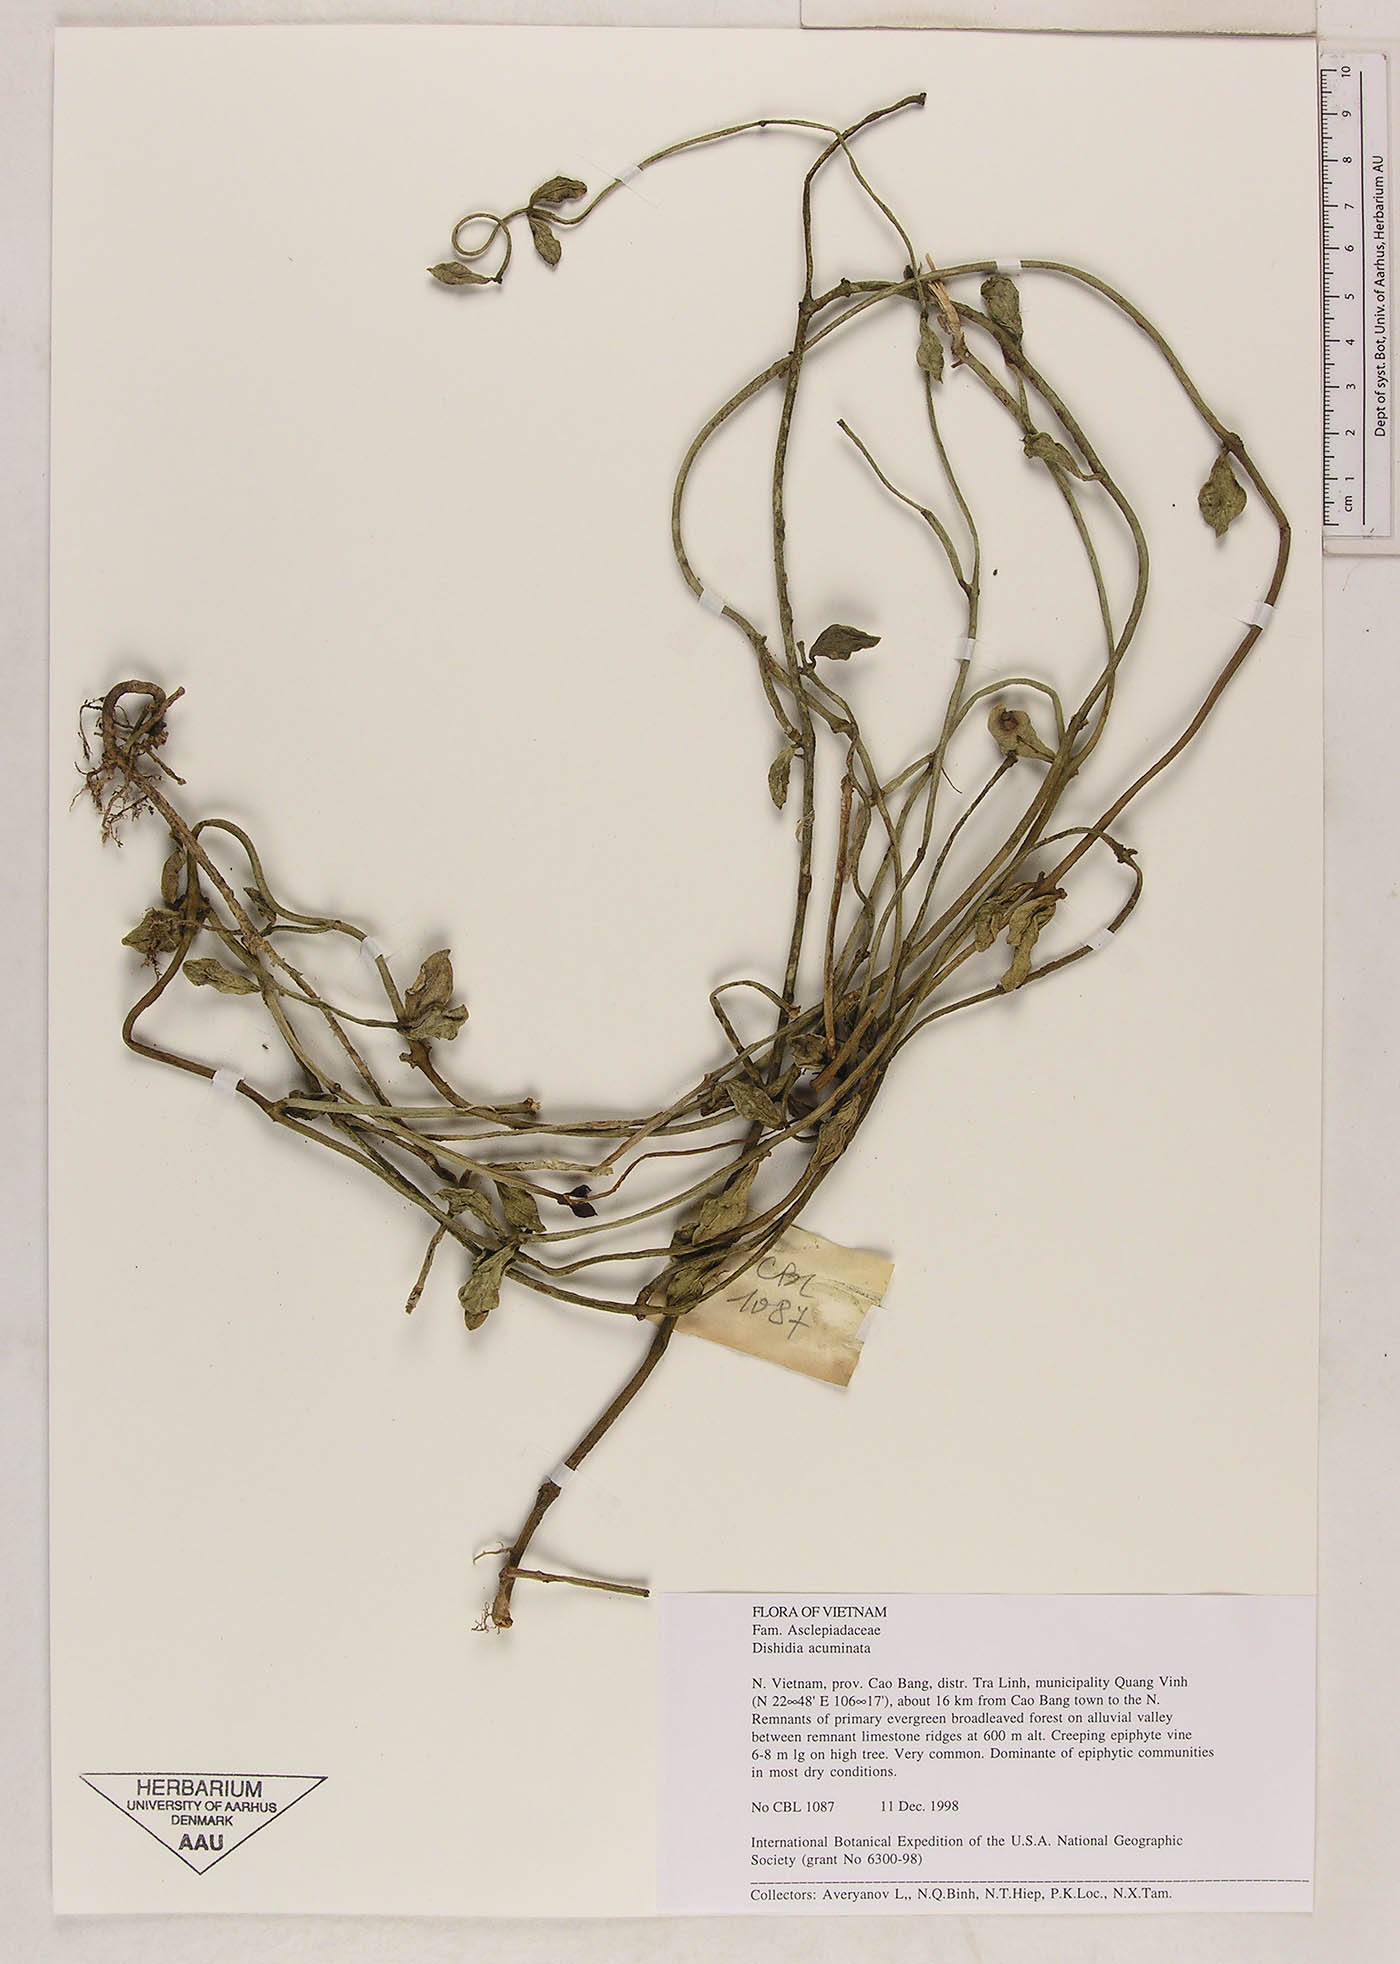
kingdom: Plantae
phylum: Tracheophyta
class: Magnoliopsida
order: Gentianales
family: Apocynaceae
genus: Dischidia
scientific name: Dischidia bengalensis
